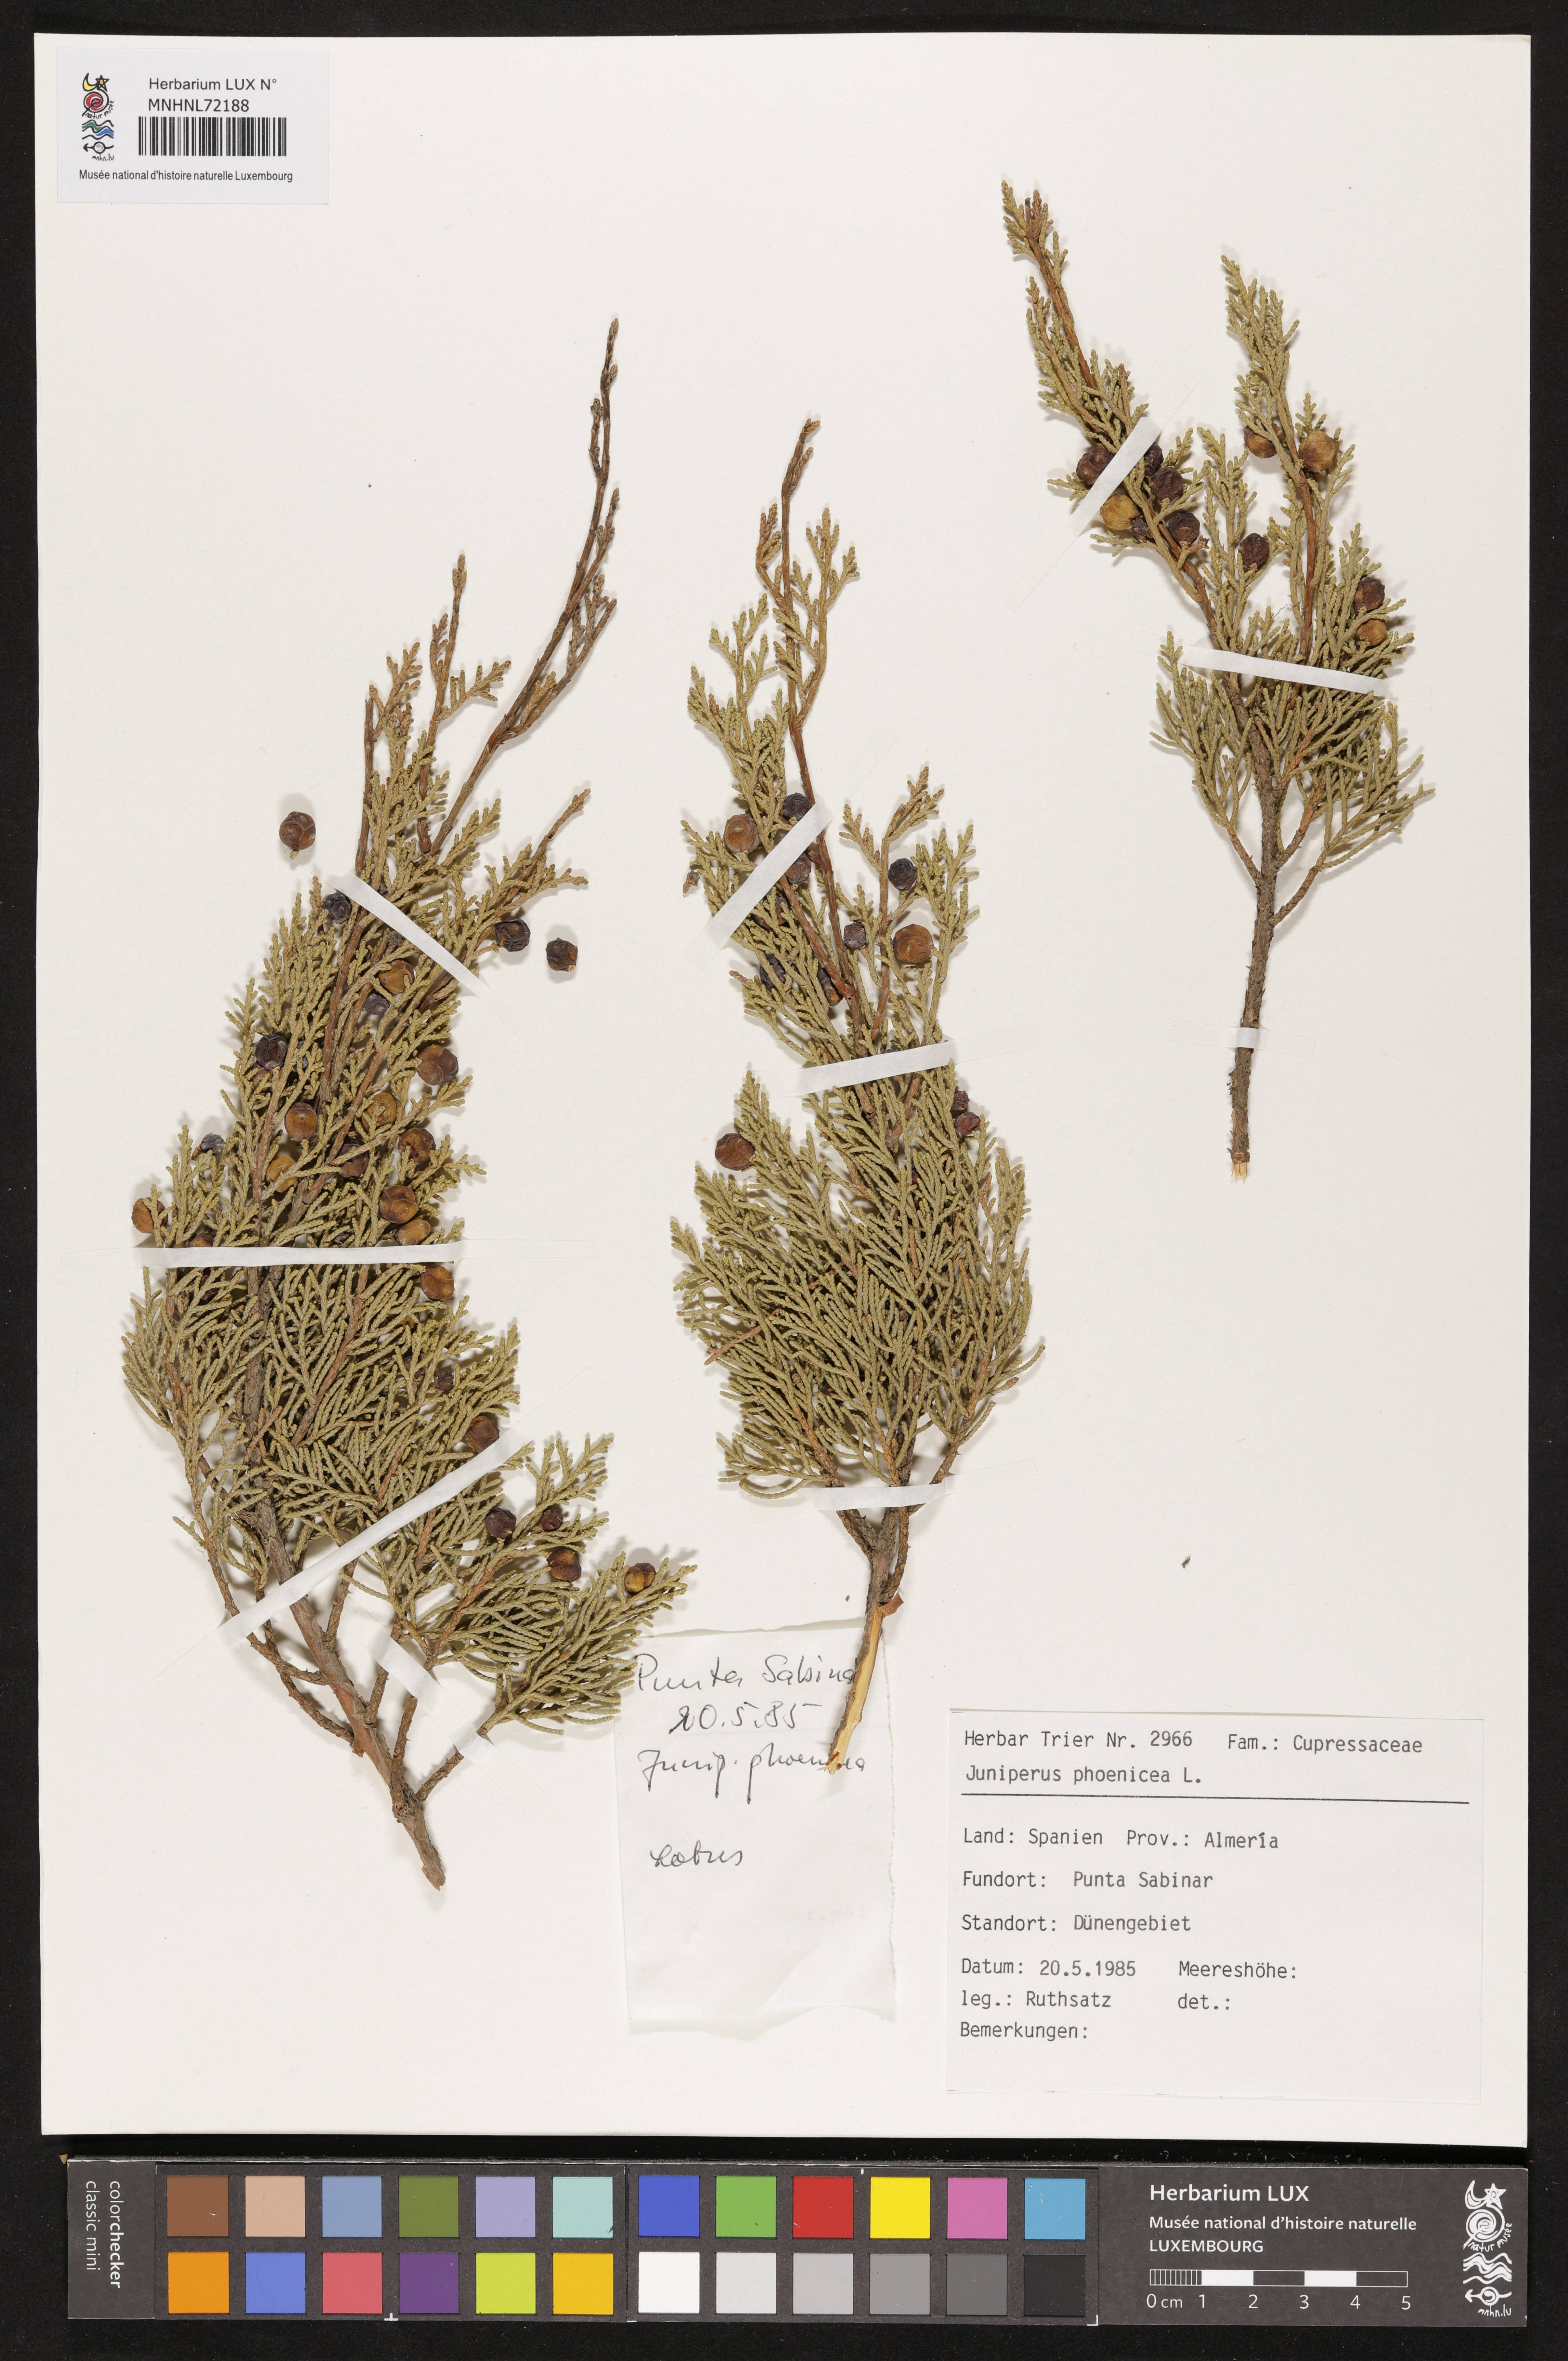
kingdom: Plantae
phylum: Tracheophyta
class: Pinopsida
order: Pinales
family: Cupressaceae
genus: Juniperus
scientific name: Juniperus phoenicea
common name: Phoenician juniper
